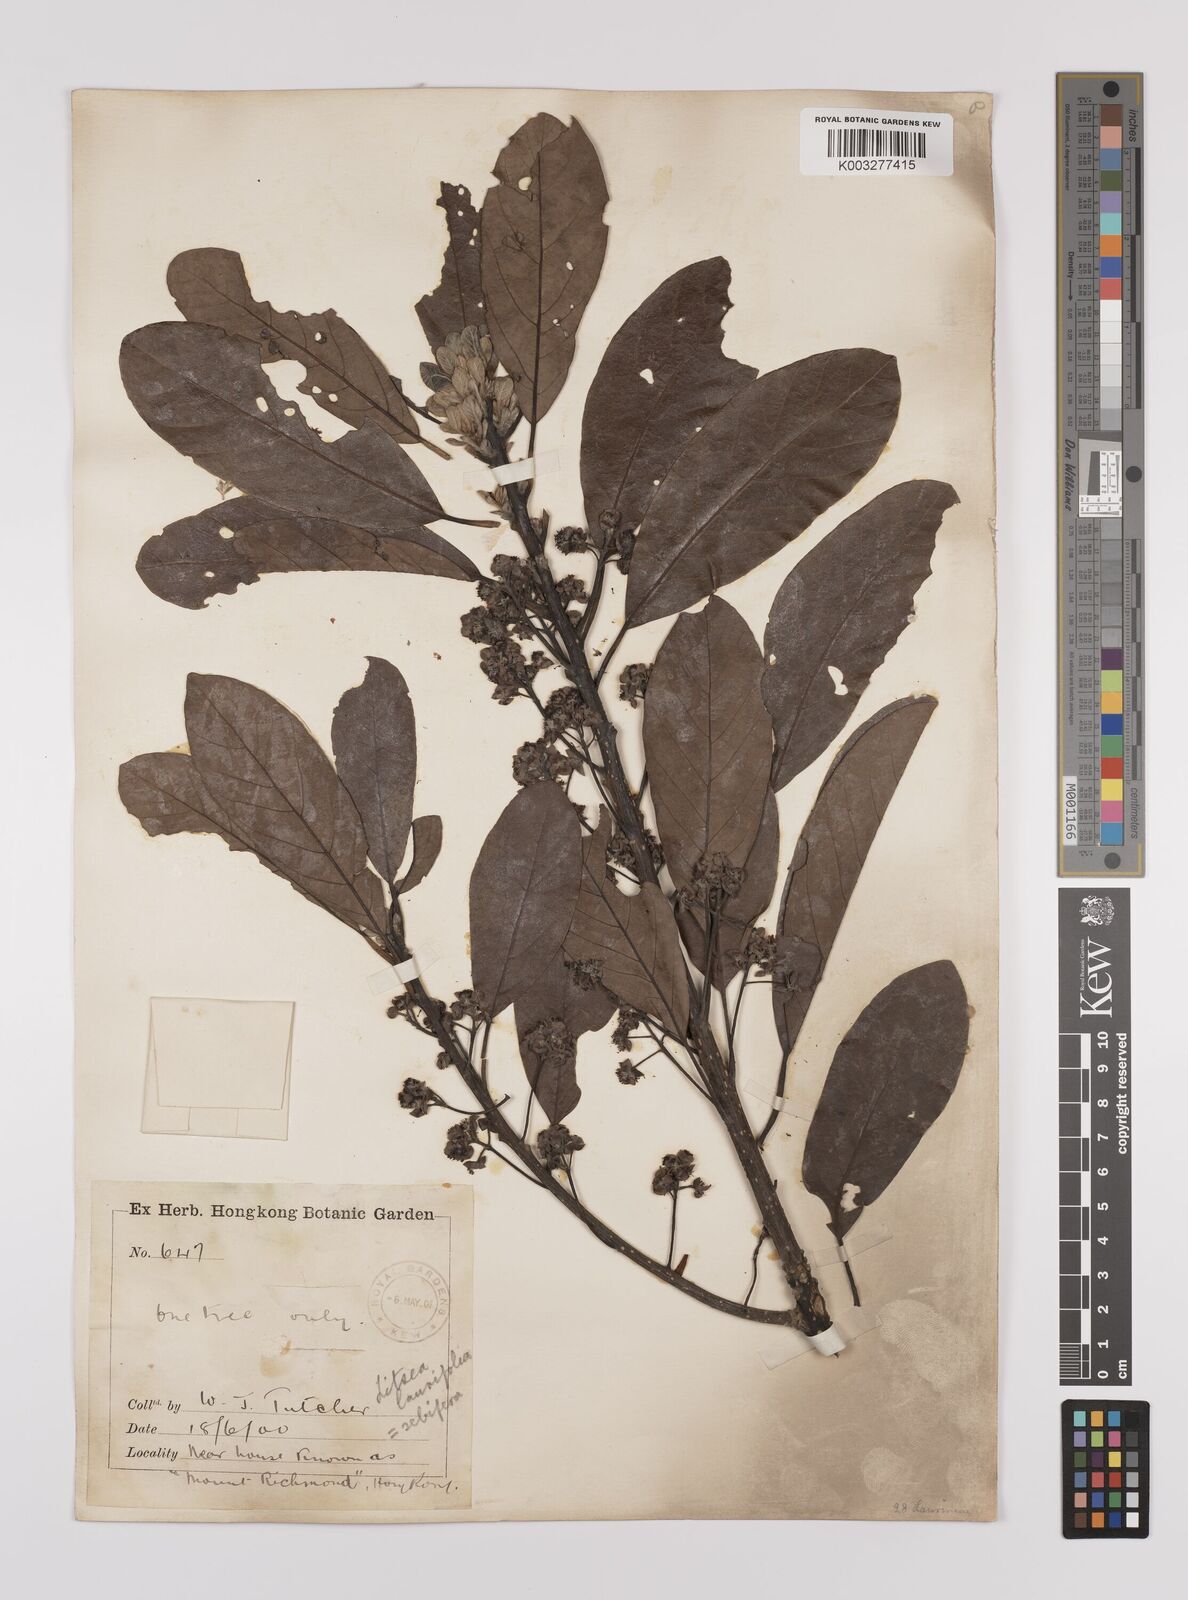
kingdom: Plantae
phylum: Tracheophyta
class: Magnoliopsida
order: Laurales
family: Lauraceae
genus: Litsea
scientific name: Litsea glutinosa
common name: Indian-laurel
